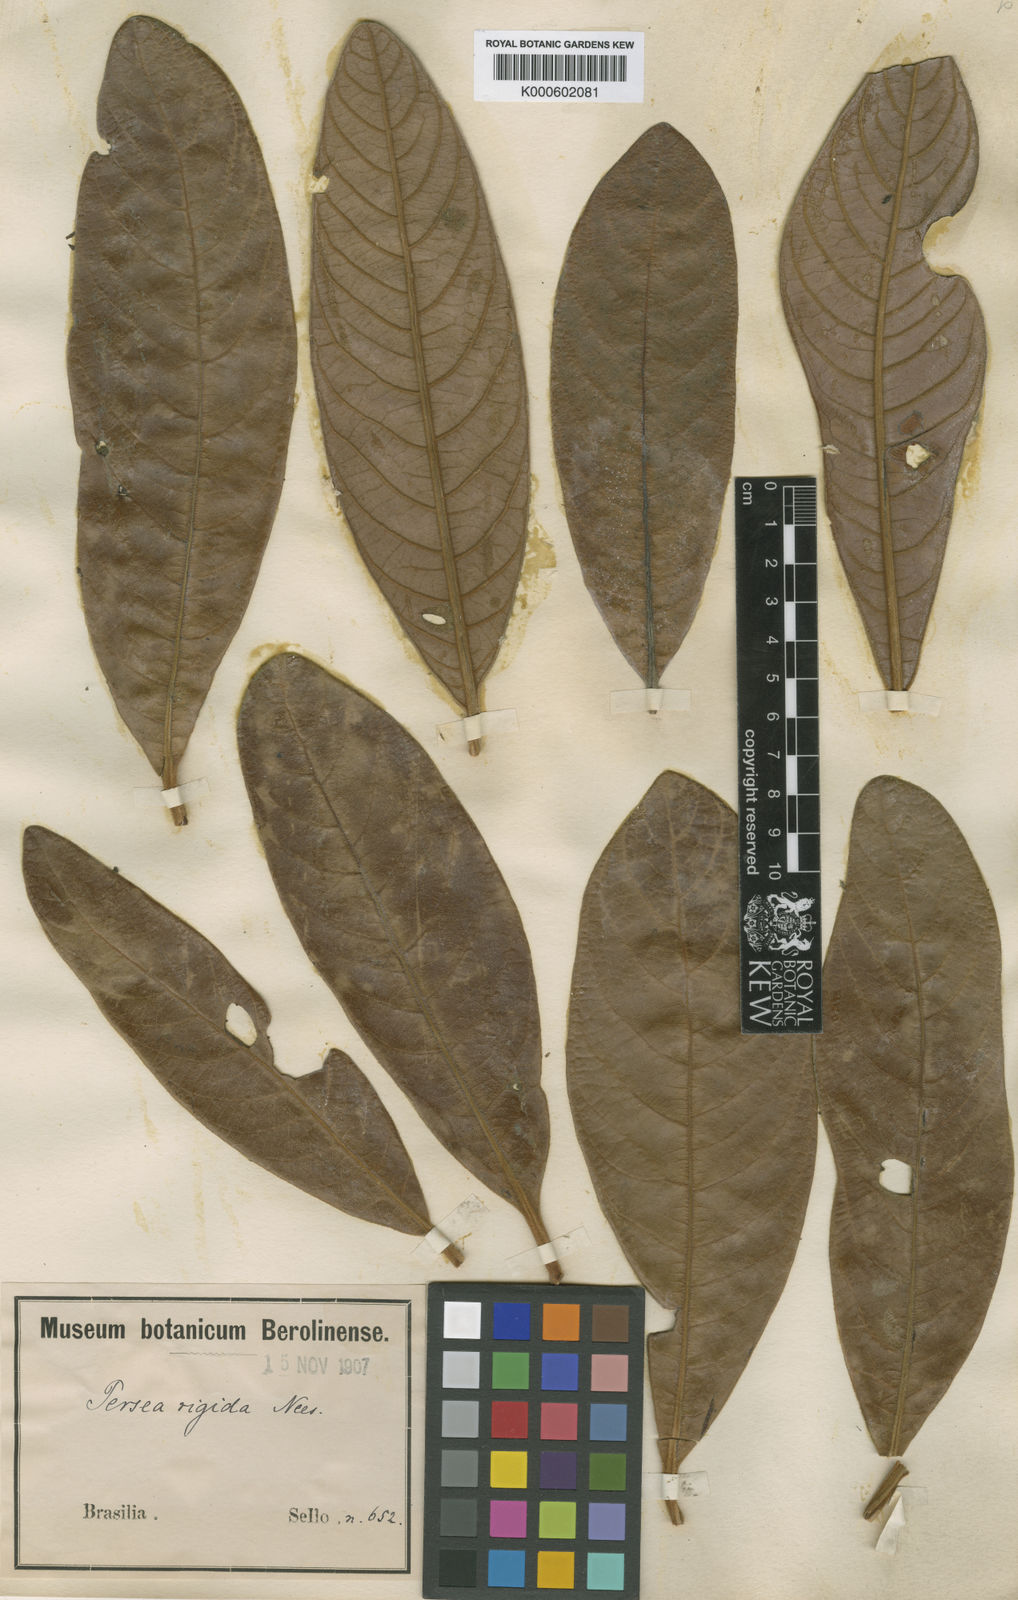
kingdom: Plantae
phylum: Tracheophyta
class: Magnoliopsida
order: Laurales
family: Lauraceae
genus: Persea
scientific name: Persea rigida
